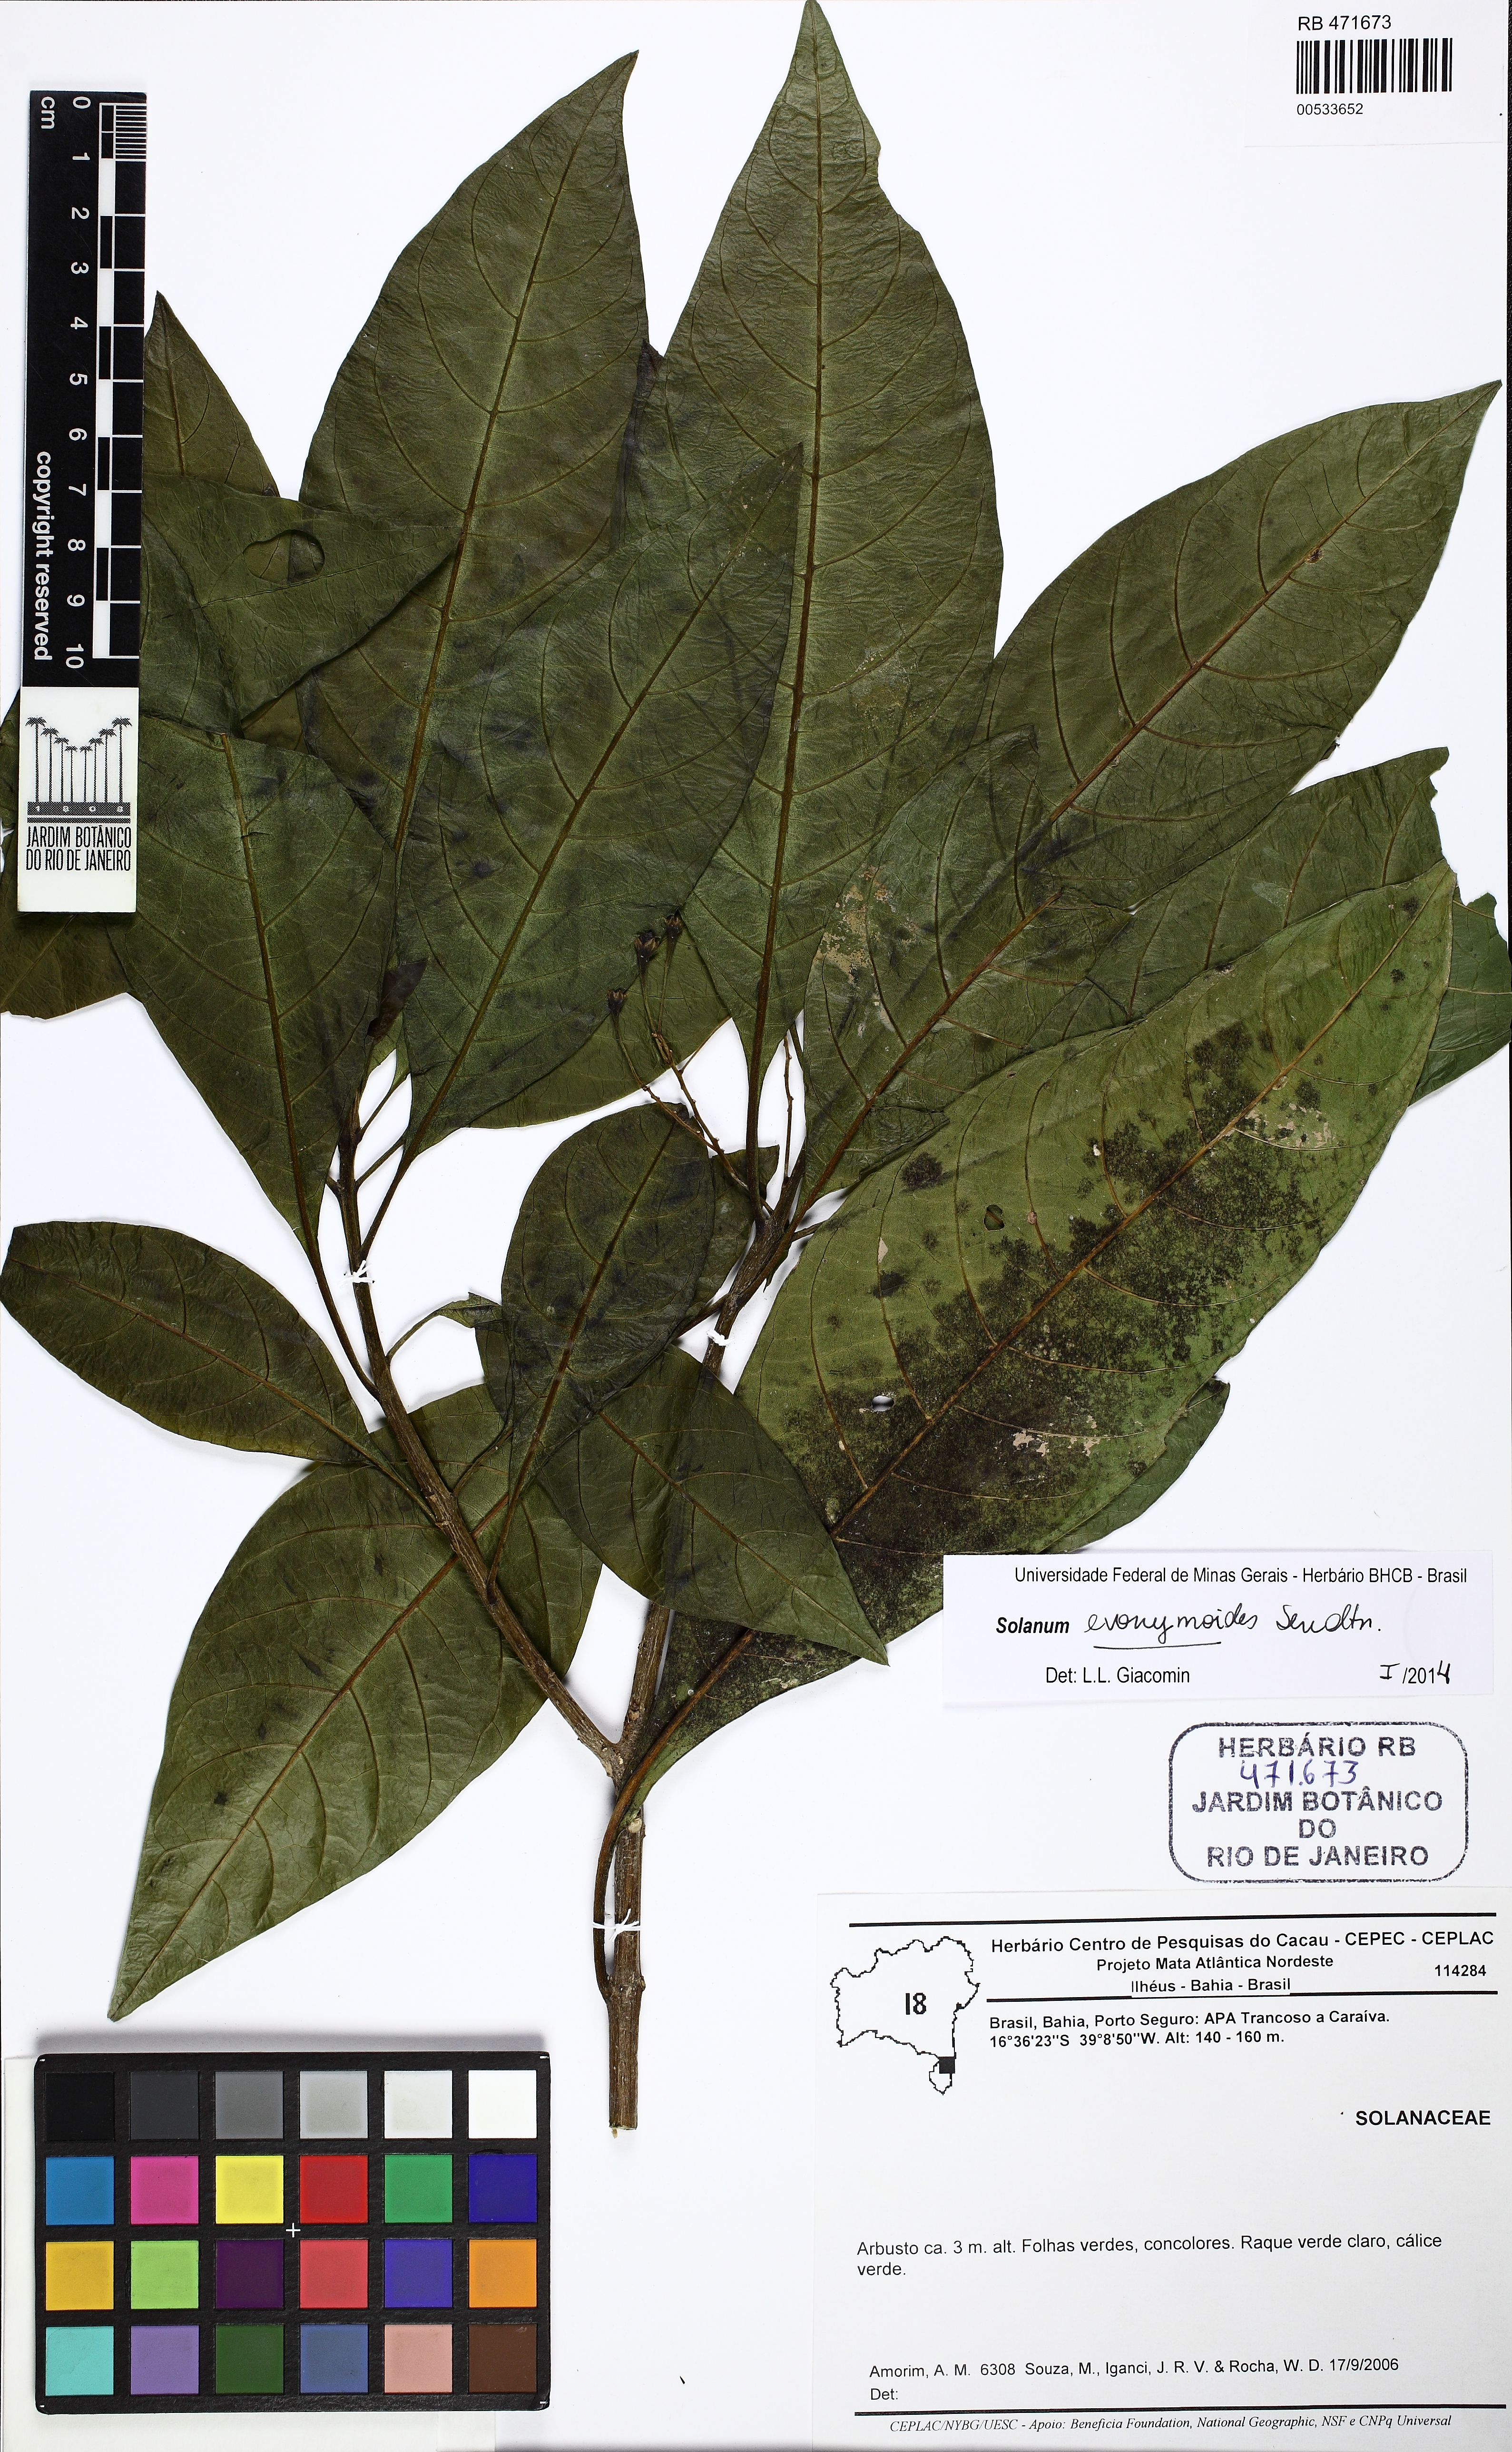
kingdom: Plantae
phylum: Tracheophyta
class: Magnoliopsida
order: Solanales
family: Solanaceae
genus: Solanum
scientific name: Solanum evonymoides
